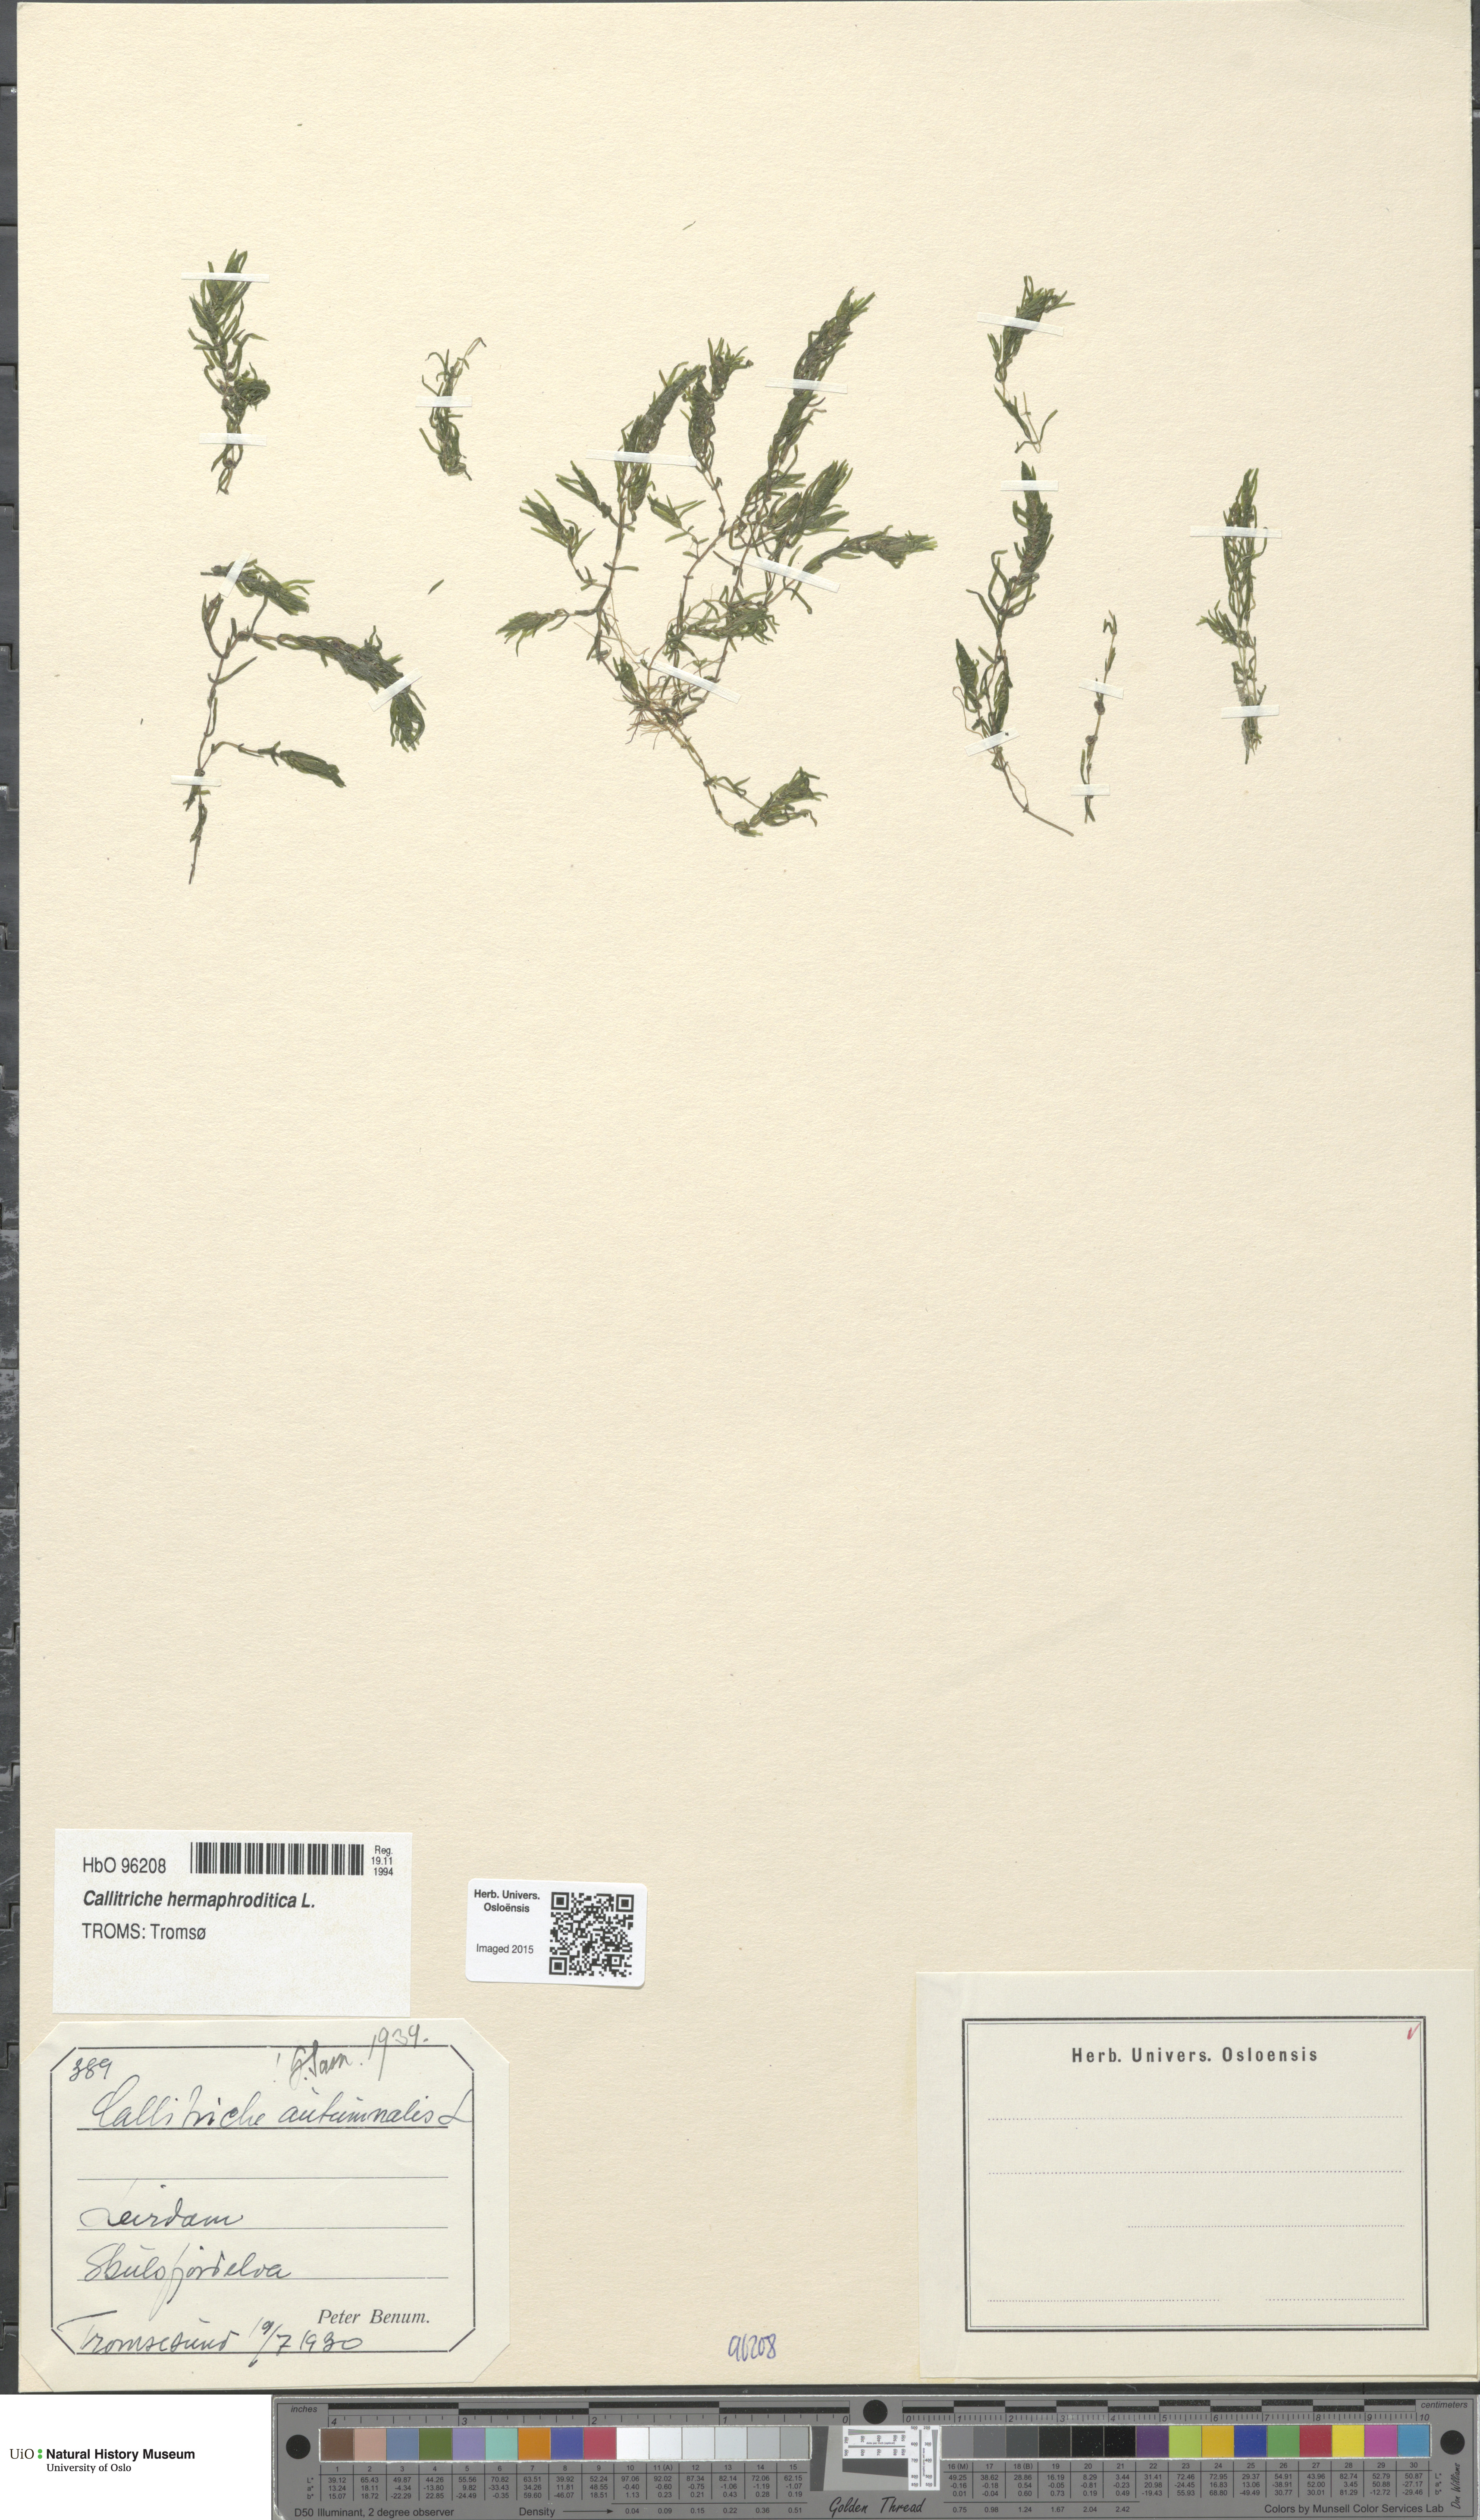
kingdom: Plantae
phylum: Tracheophyta
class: Magnoliopsida
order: Lamiales
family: Plantaginaceae
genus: Callitriche
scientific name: Callitriche hermaphroditica
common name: Autumnal water-starwort
